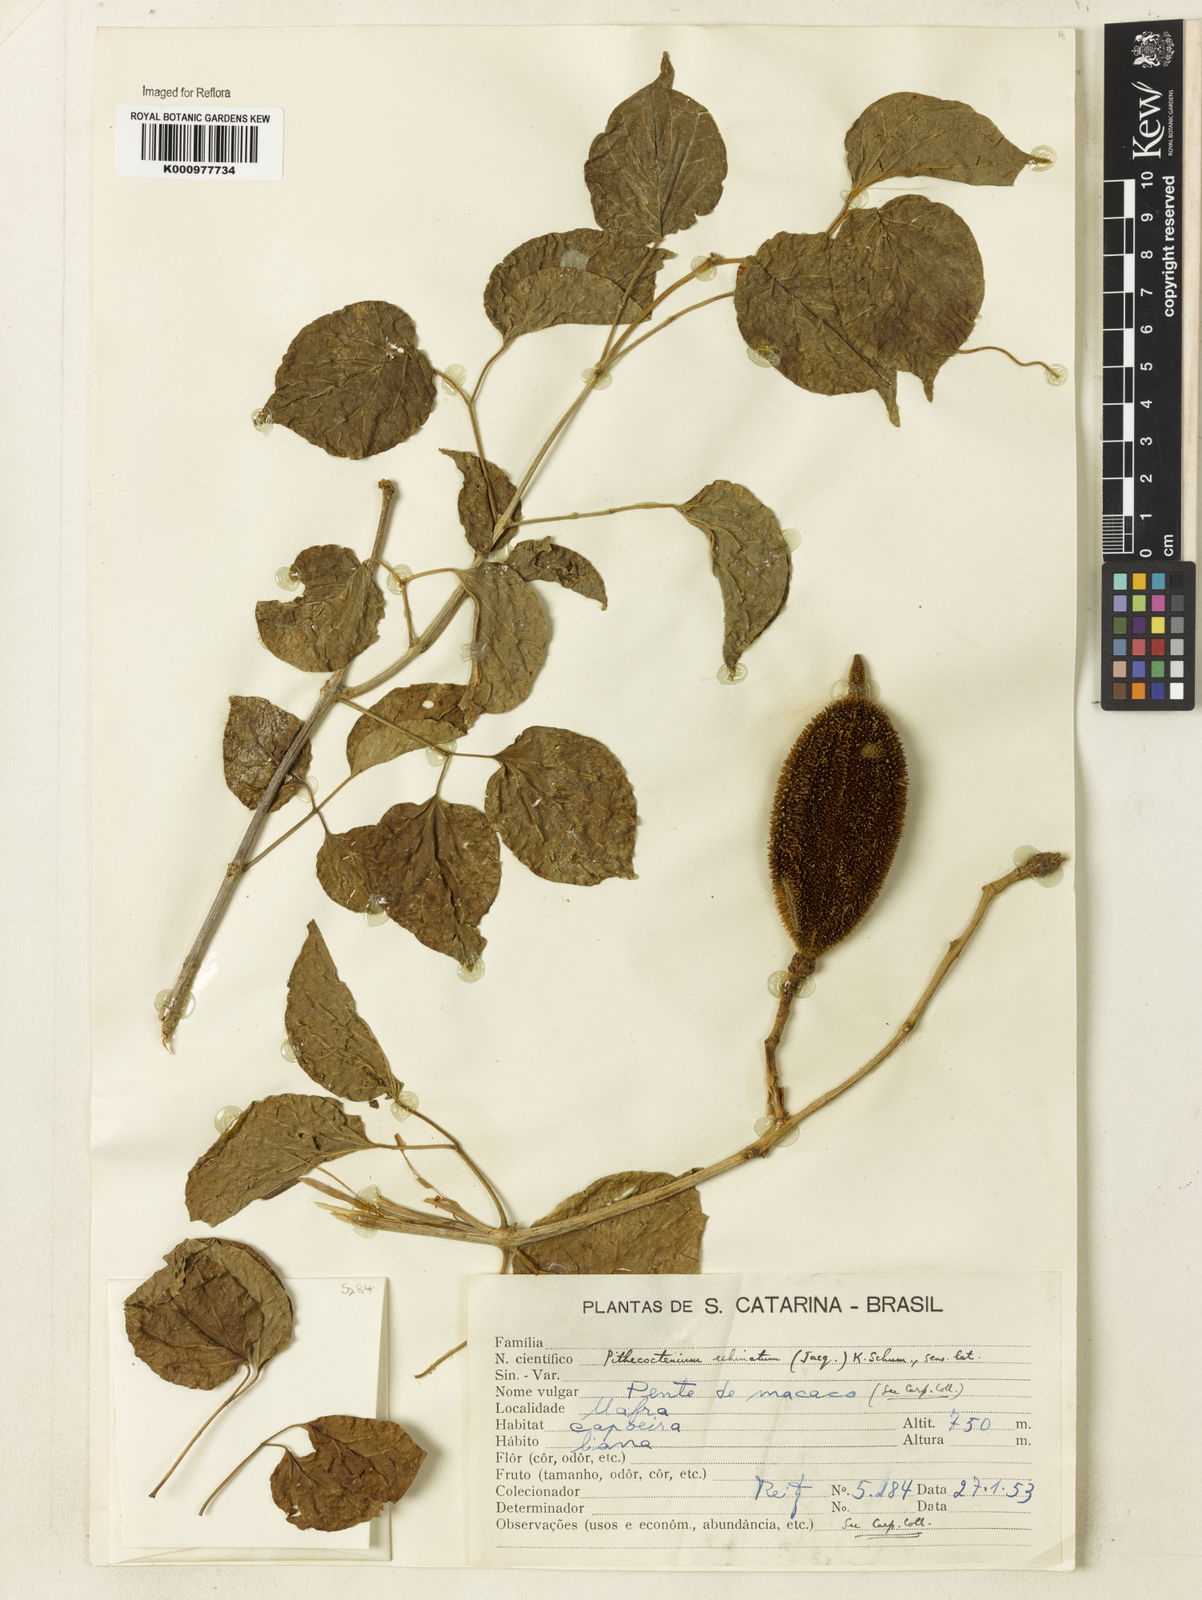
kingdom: Plantae
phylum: Tracheophyta
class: Magnoliopsida
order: Lamiales
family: Bignoniaceae
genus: Amphilophium
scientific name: Amphilophium crucigerum
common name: Monkey comb
